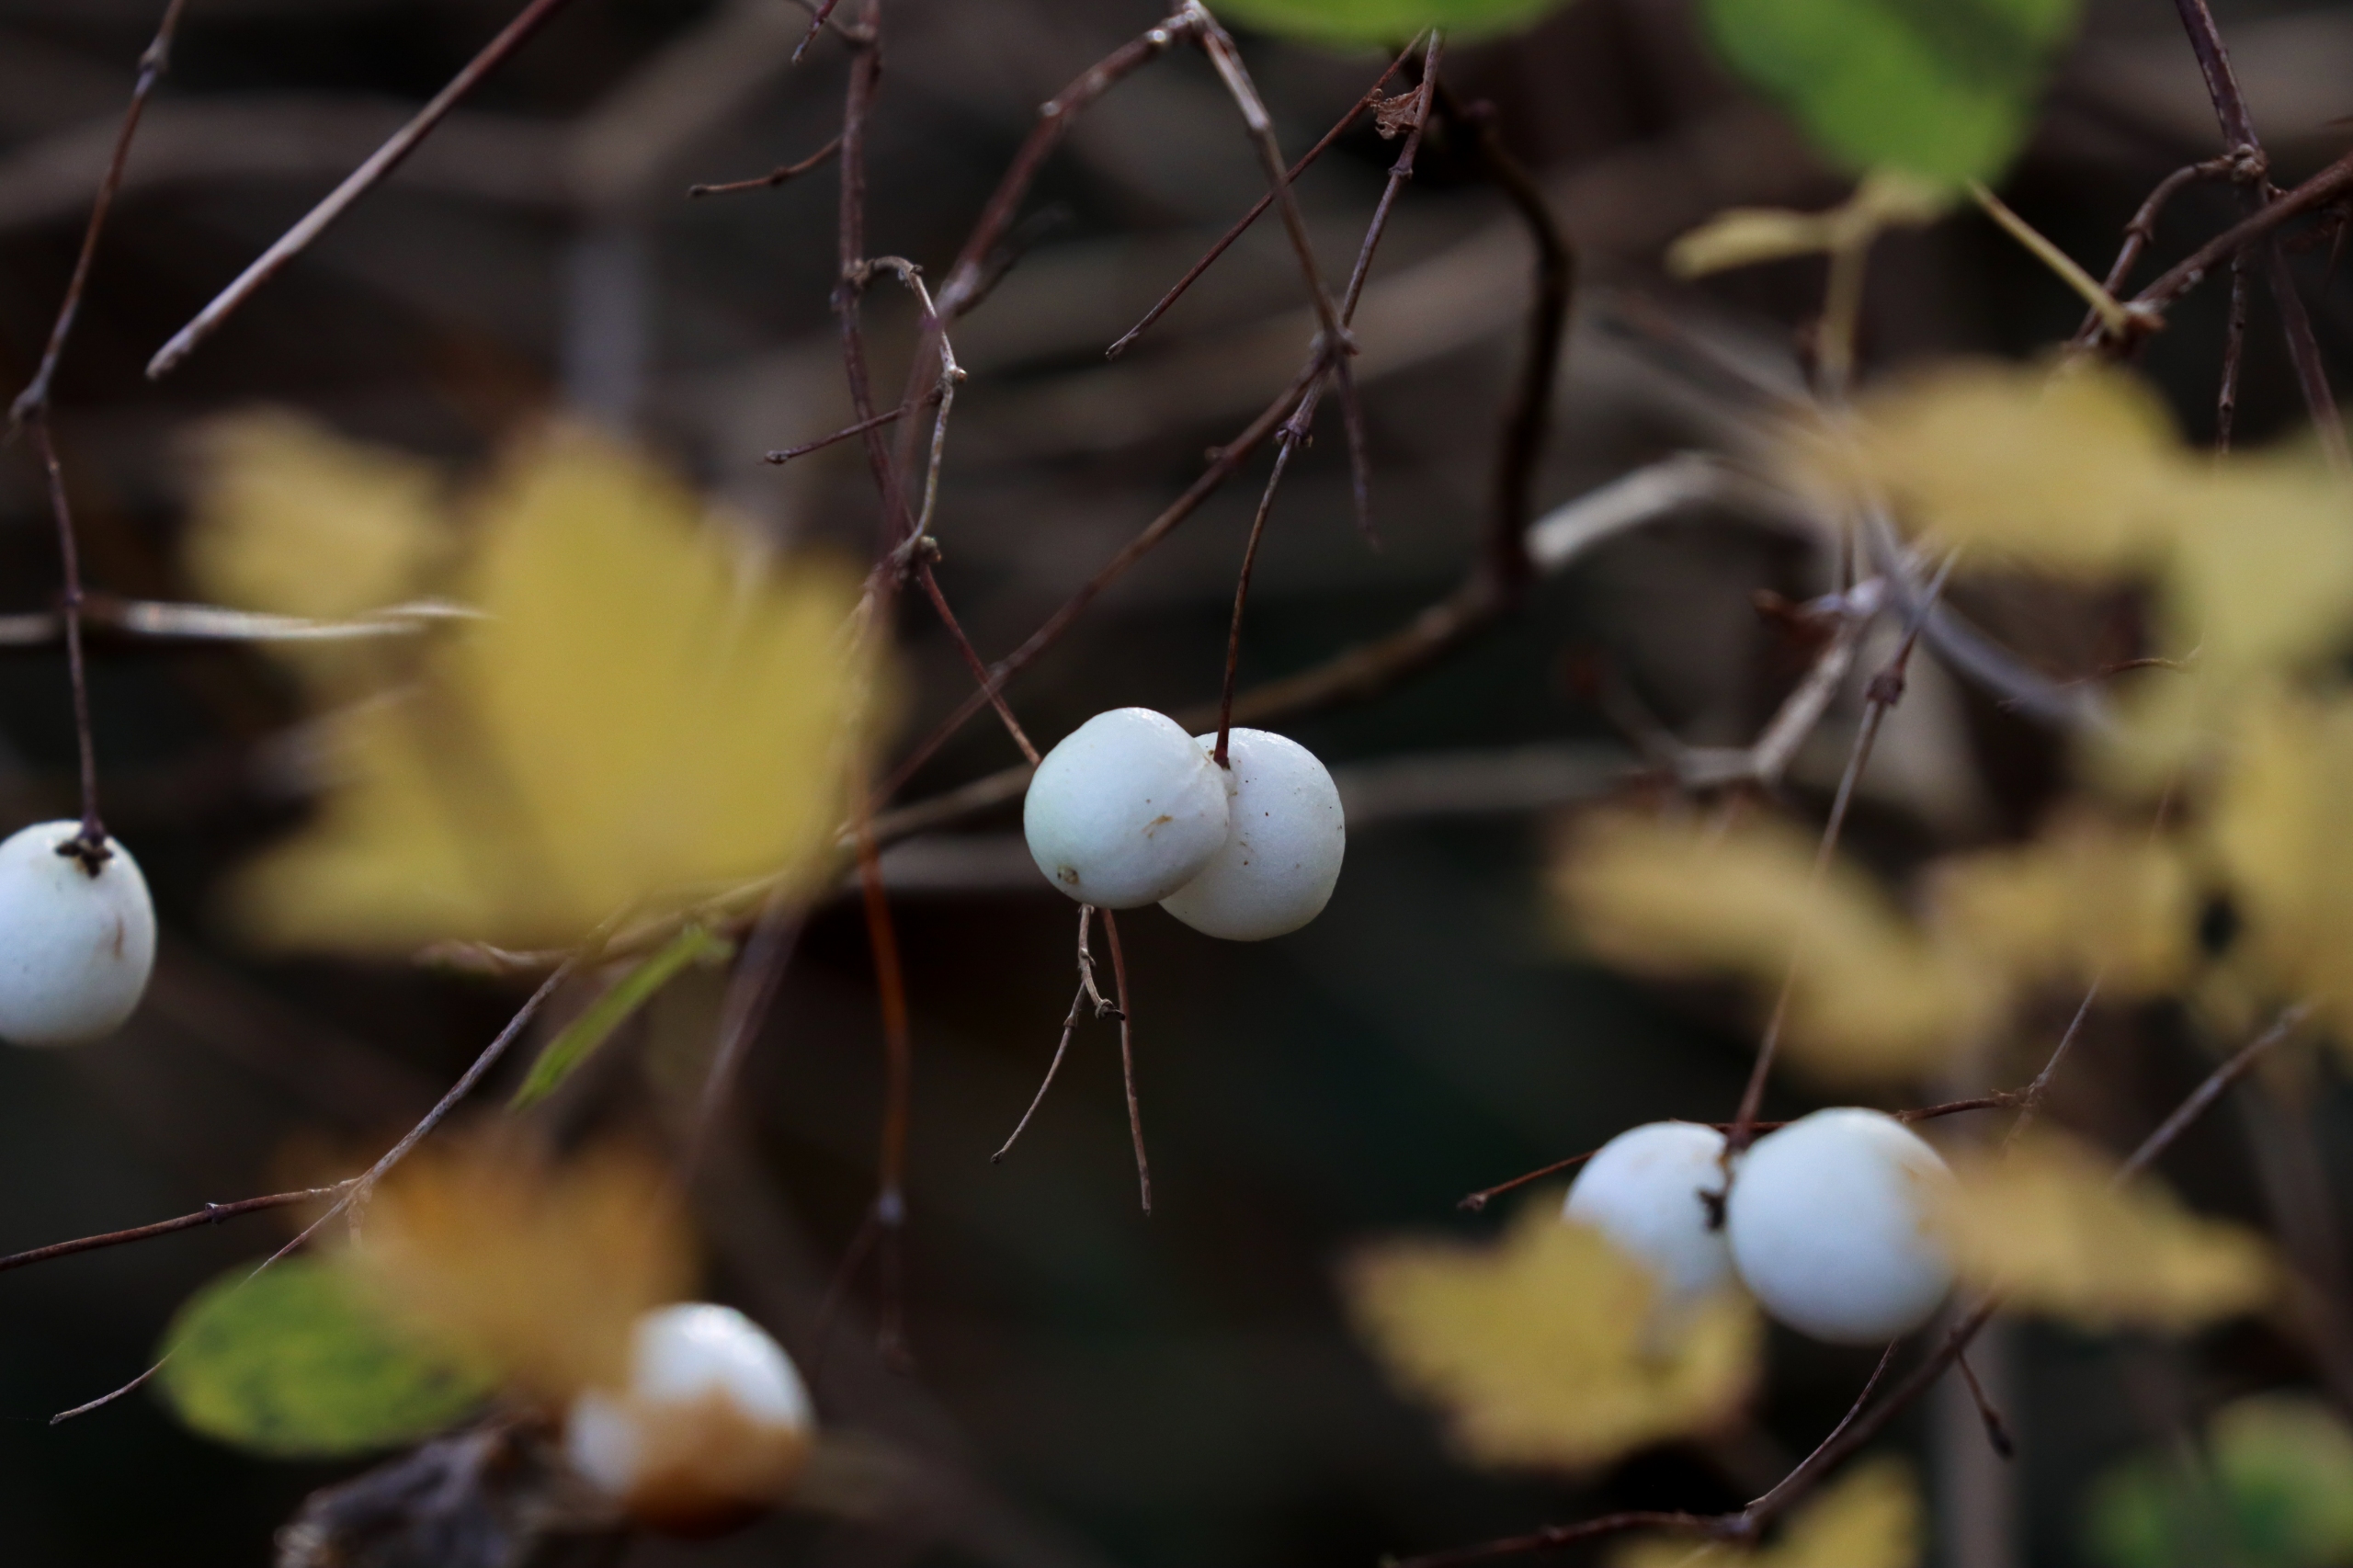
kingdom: Plantae
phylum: Tracheophyta
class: Magnoliopsida
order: Dipsacales
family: Caprifoliaceae
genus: Symphoricarpos
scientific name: Symphoricarpos albus
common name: Almindelig snebær
